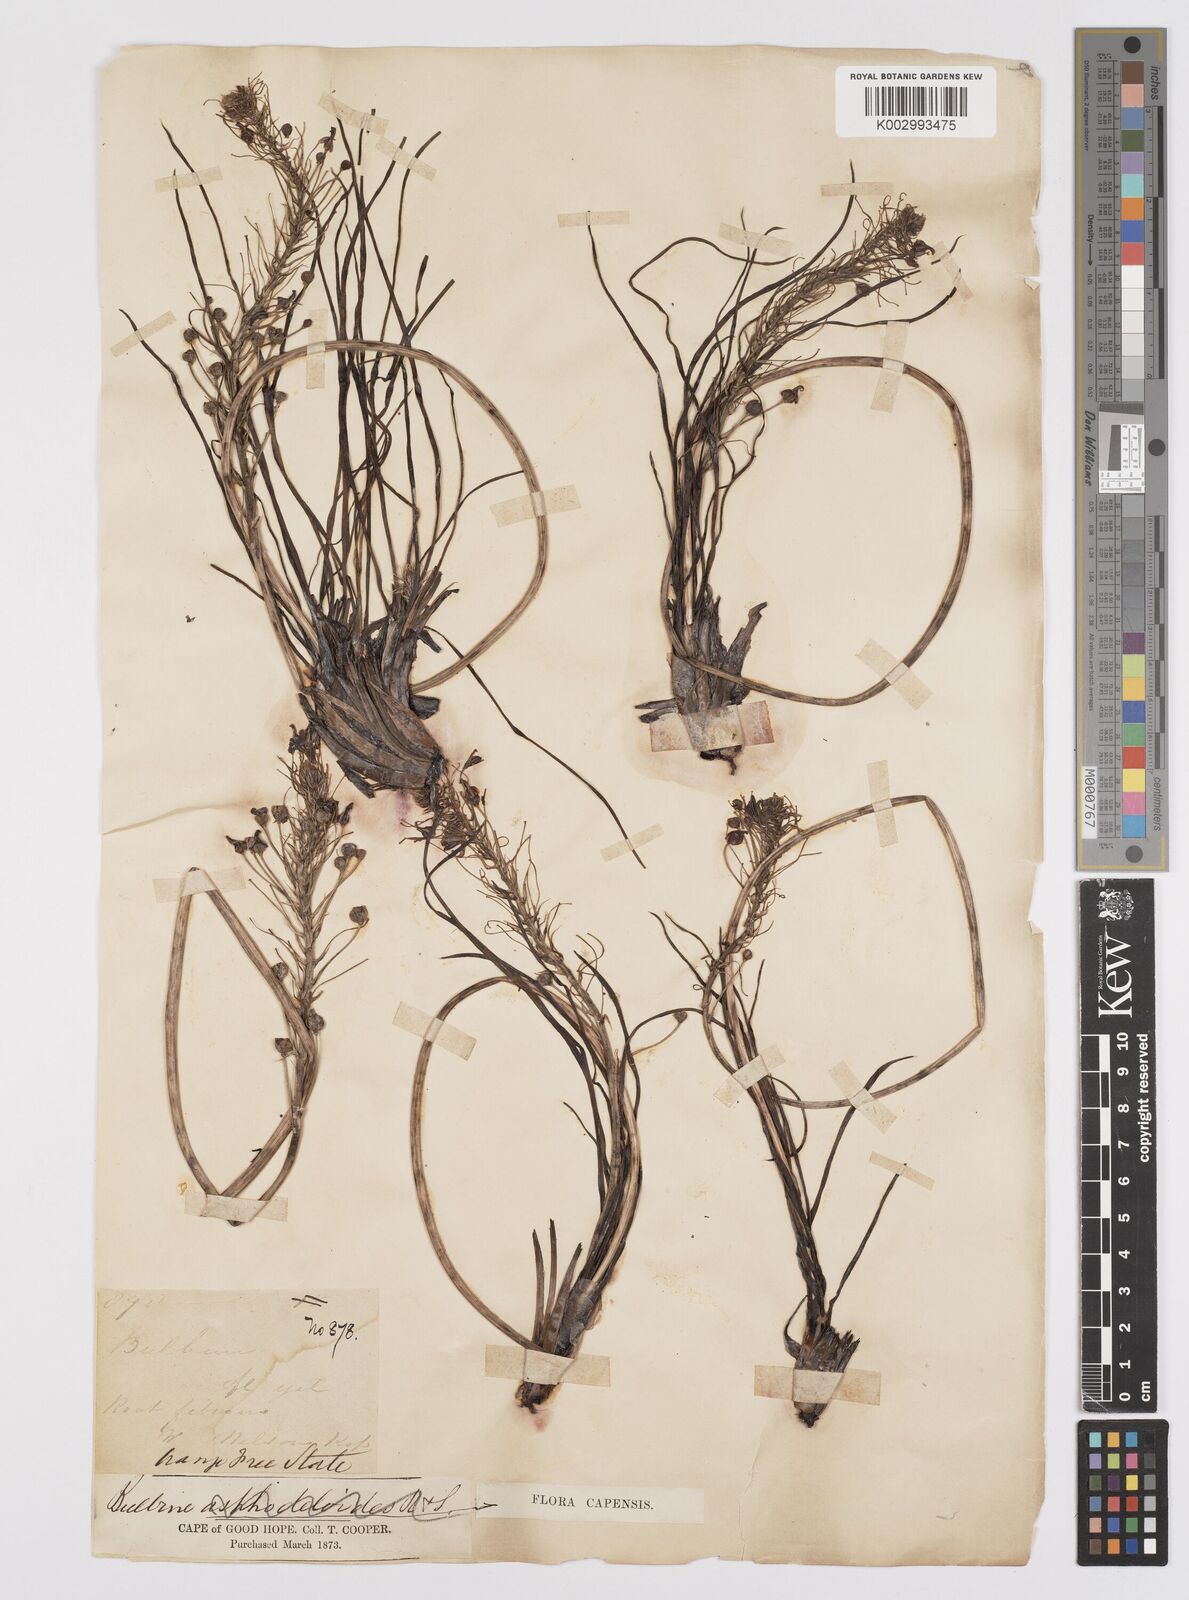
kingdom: Plantae
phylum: Tracheophyta
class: Liliopsida
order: Asparagales
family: Asphodelaceae
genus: Bulbine
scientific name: Bulbine lagopus
